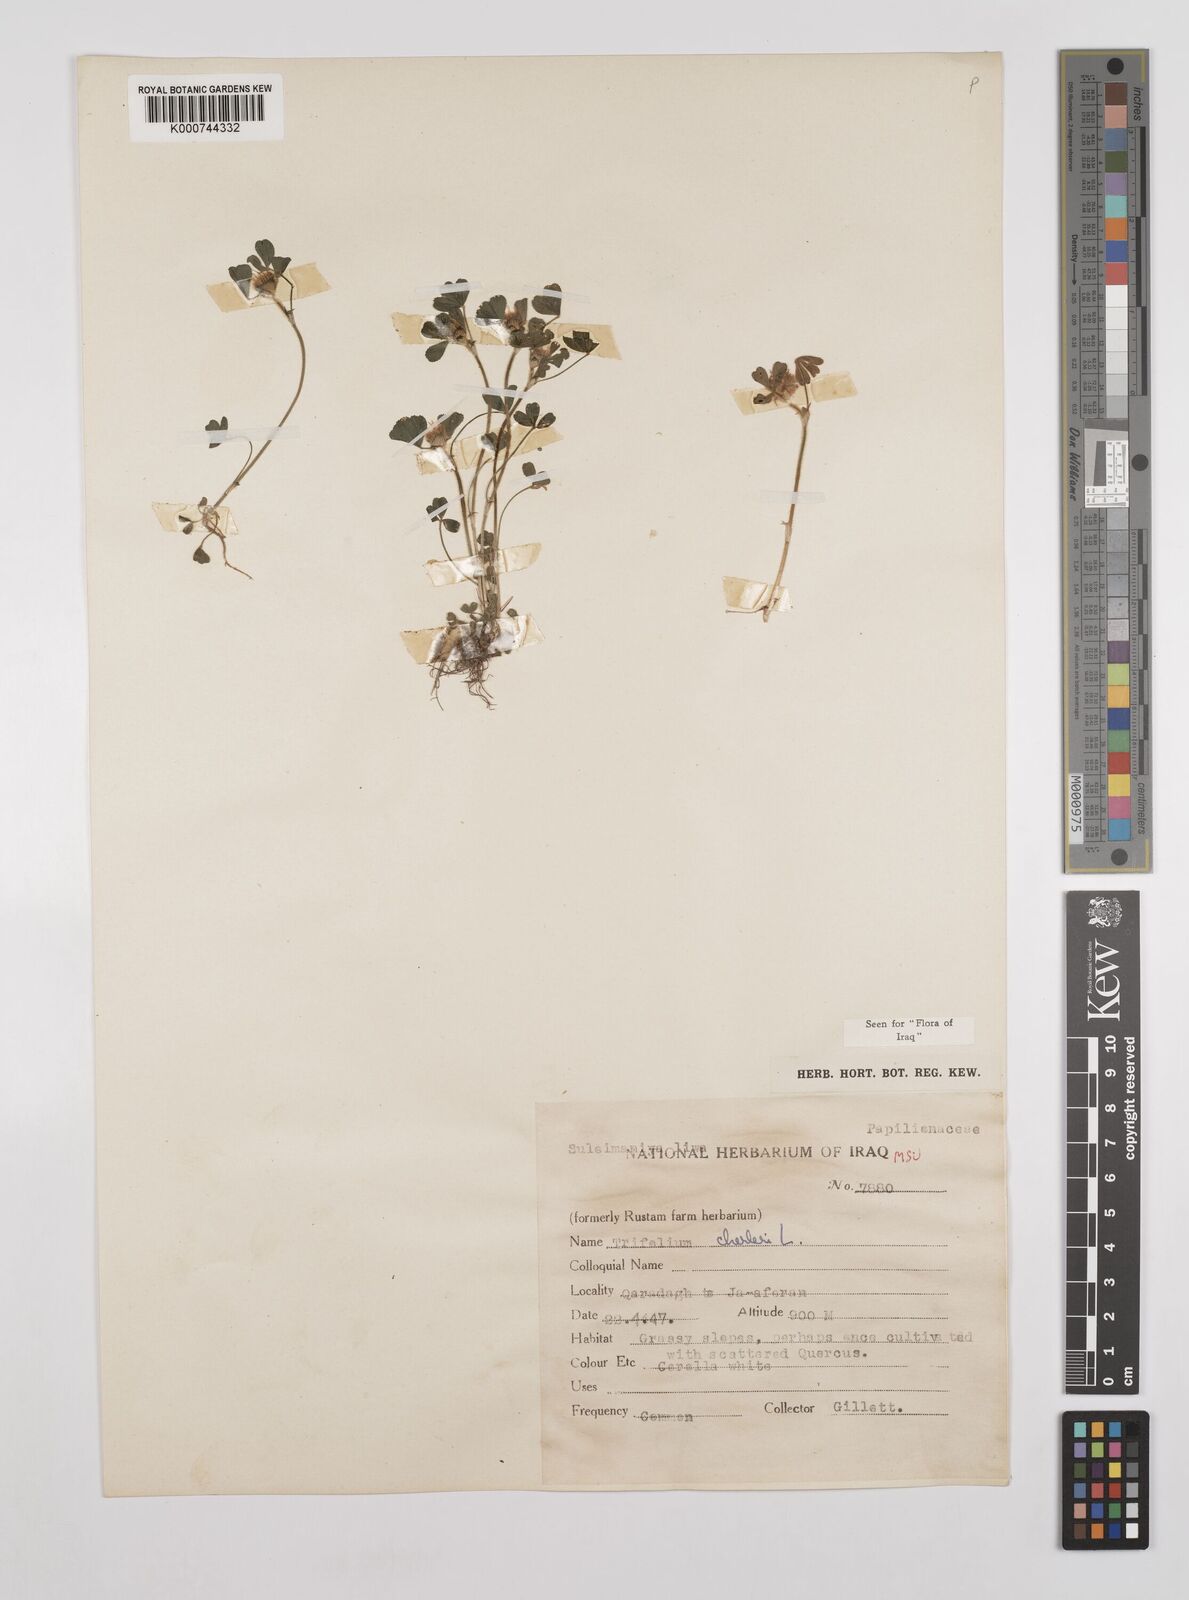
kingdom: Plantae
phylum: Tracheophyta
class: Magnoliopsida
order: Fabales
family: Fabaceae
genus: Trifolium
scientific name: Trifolium cherleri
